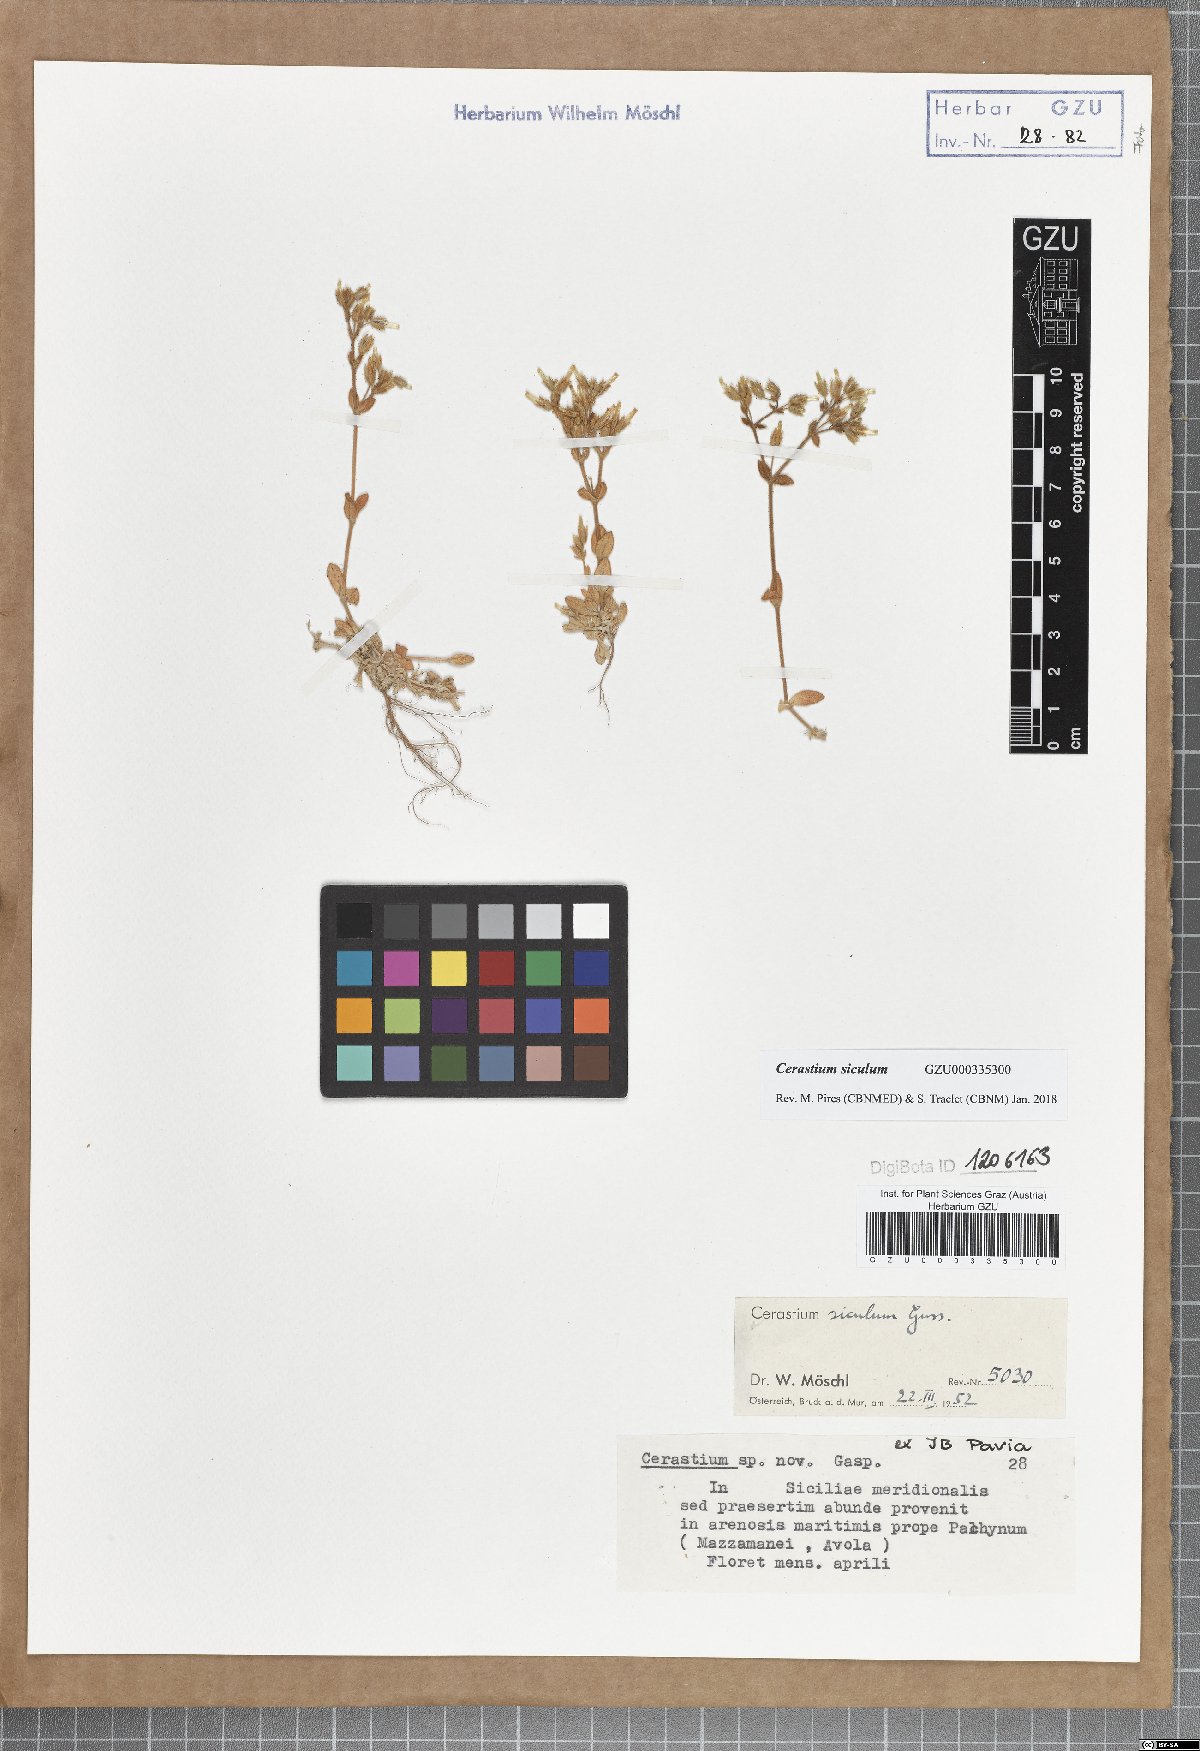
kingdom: Plantae
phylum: Tracheophyta
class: Magnoliopsida
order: Caryophyllales
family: Caryophyllaceae
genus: Cerastium
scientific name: Cerastium siculum
